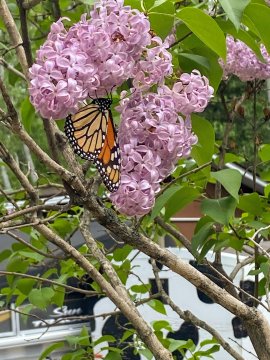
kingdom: Animalia
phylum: Arthropoda
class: Insecta
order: Lepidoptera
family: Nymphalidae
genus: Danaus
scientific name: Danaus plexippus
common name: Monarch
